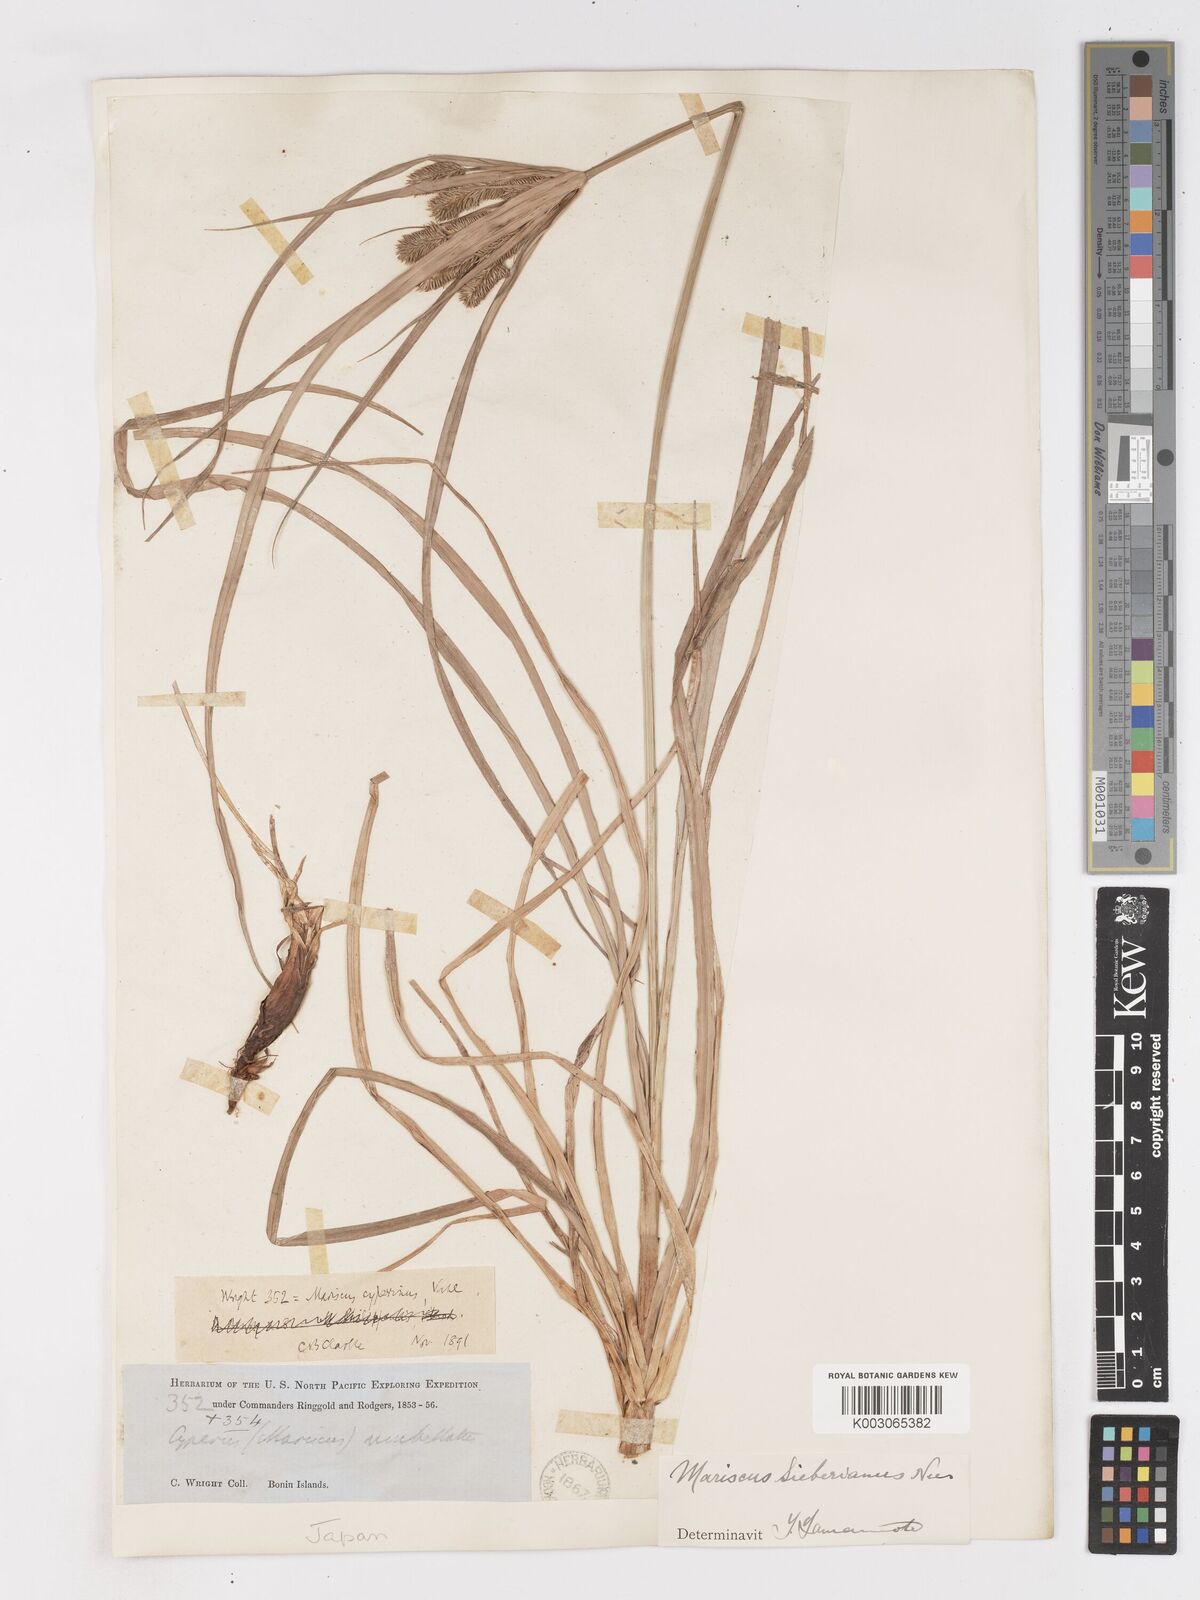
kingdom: Plantae
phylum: Tracheophyta
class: Liliopsida
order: Poales
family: Cyperaceae
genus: Cyperus
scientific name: Cyperus cyperoides
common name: Pacific island flat sedge
